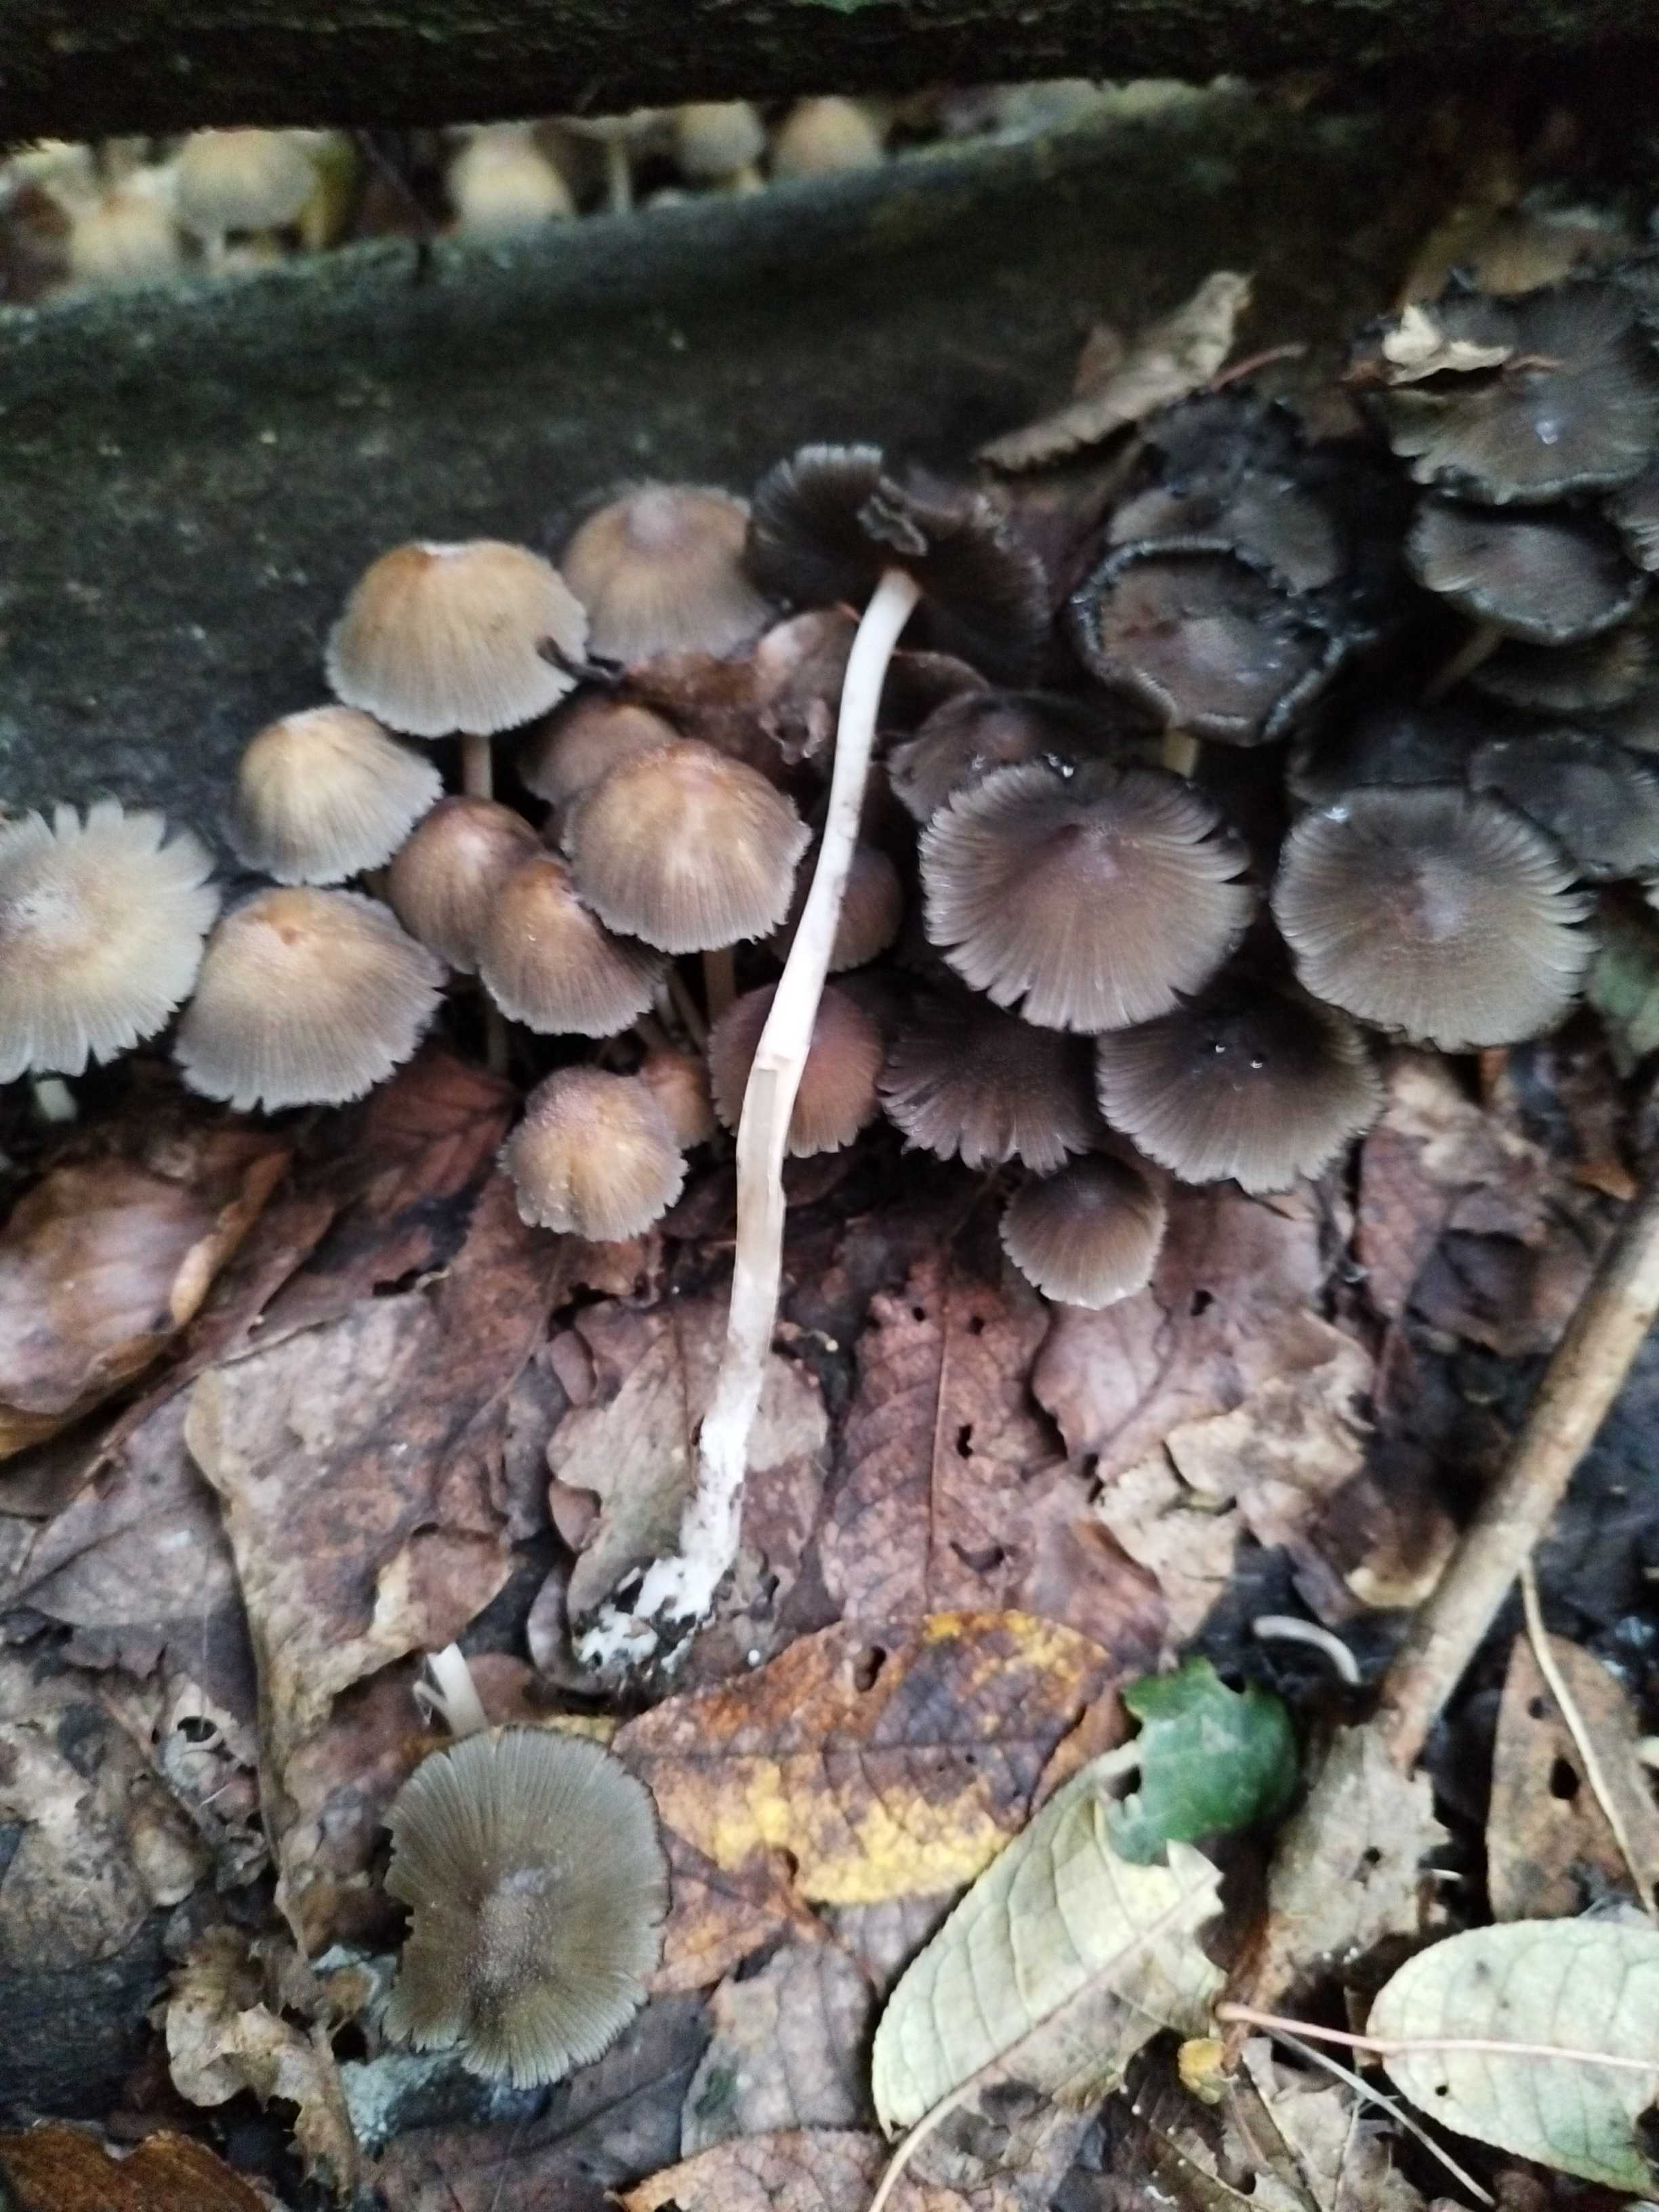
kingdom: Fungi
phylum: Basidiomycota
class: Agaricomycetes
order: Agaricales
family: Psathyrellaceae
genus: Coprinellus
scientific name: Coprinellus
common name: blækhat
